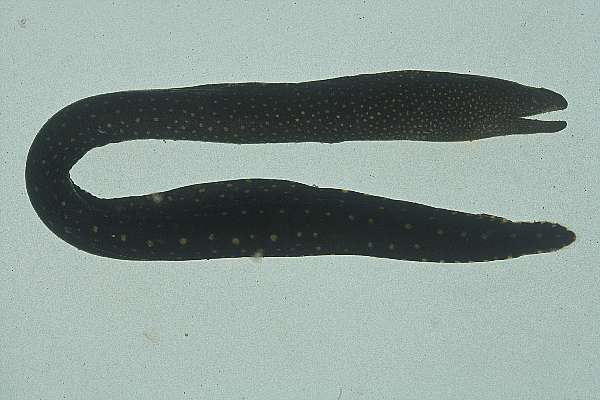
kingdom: Animalia
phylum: Chordata
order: Anguilliformes
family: Muraenidae
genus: Gymnothorax
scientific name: Gymnothorax meleagris
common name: Guineafowl moray
